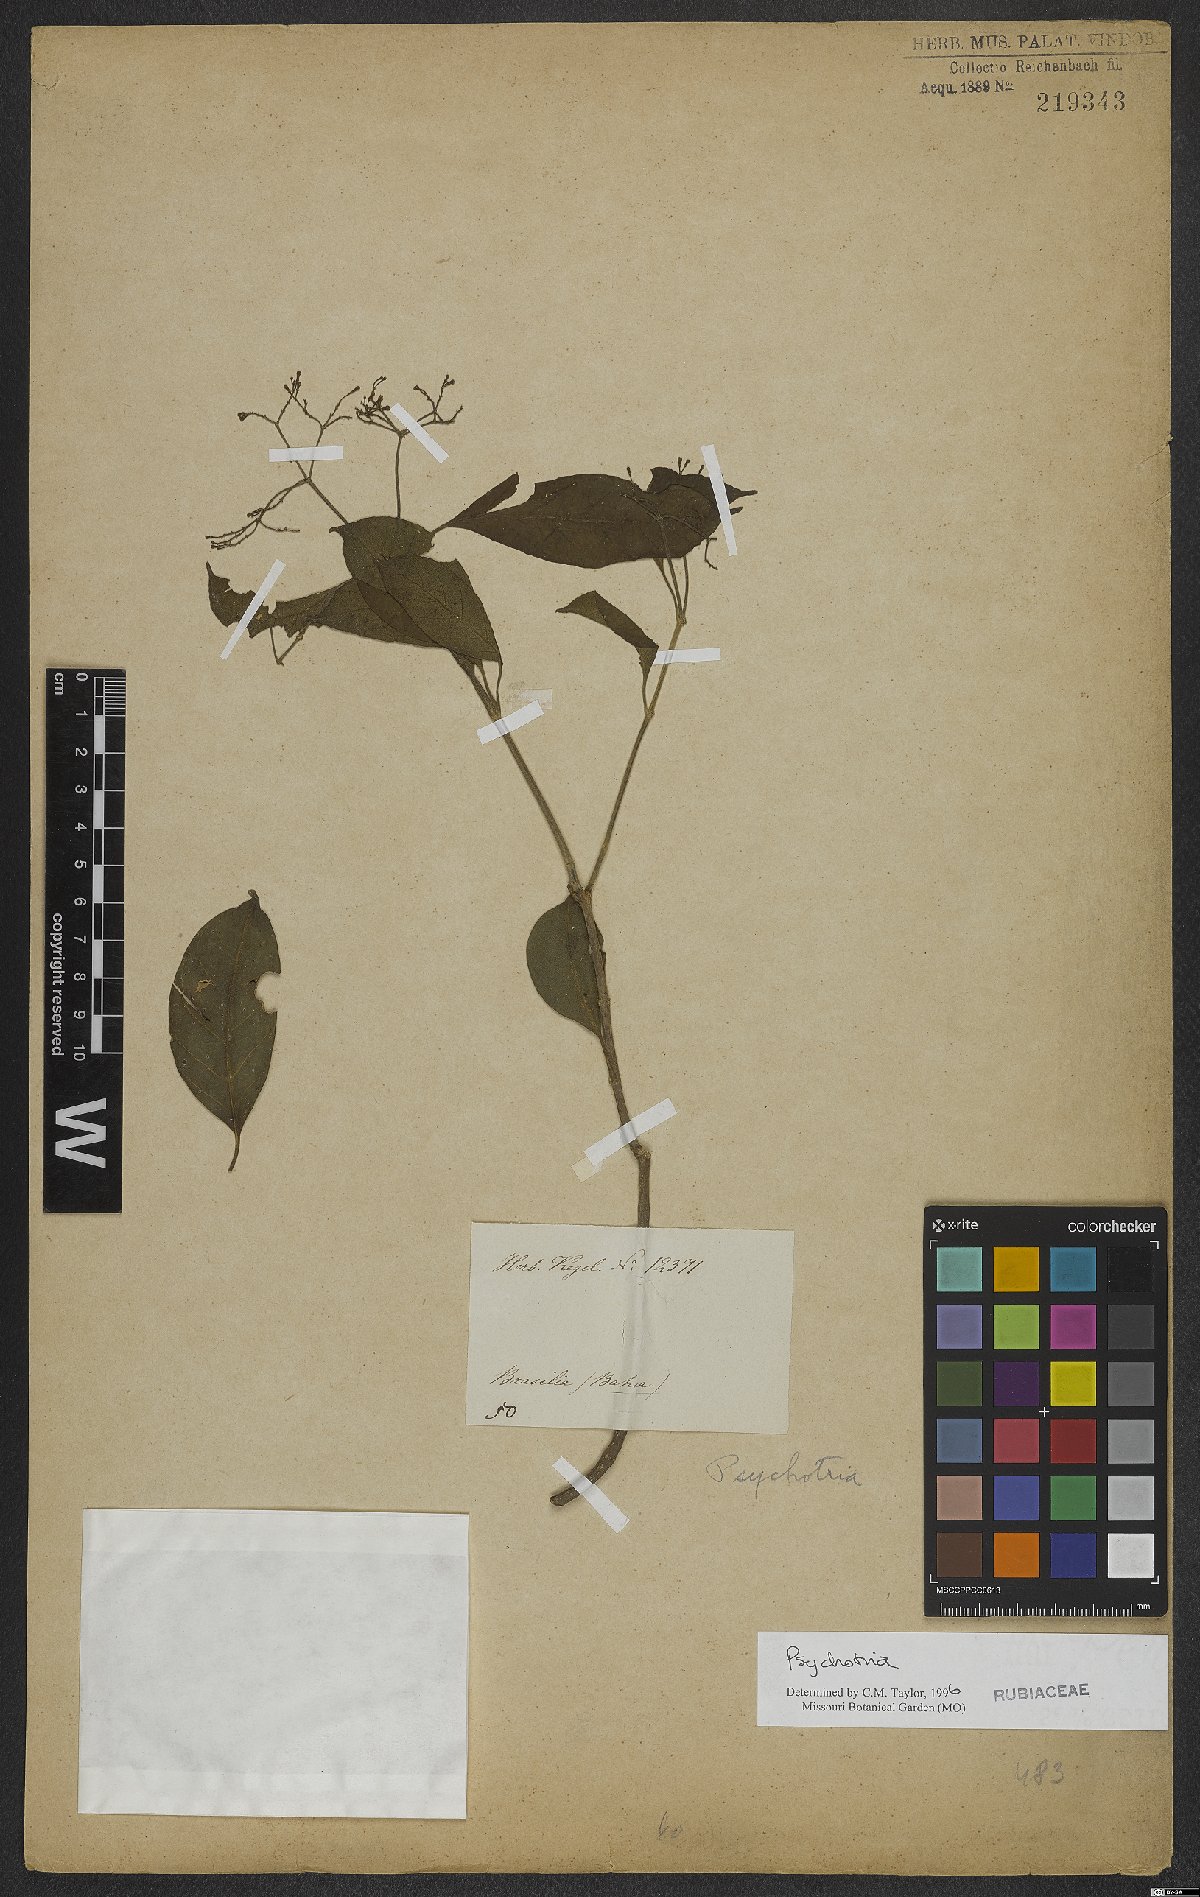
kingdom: Plantae
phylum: Tracheophyta
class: Magnoliopsida
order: Gentianales
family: Rubiaceae
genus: Psychotria
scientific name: Psychotria
